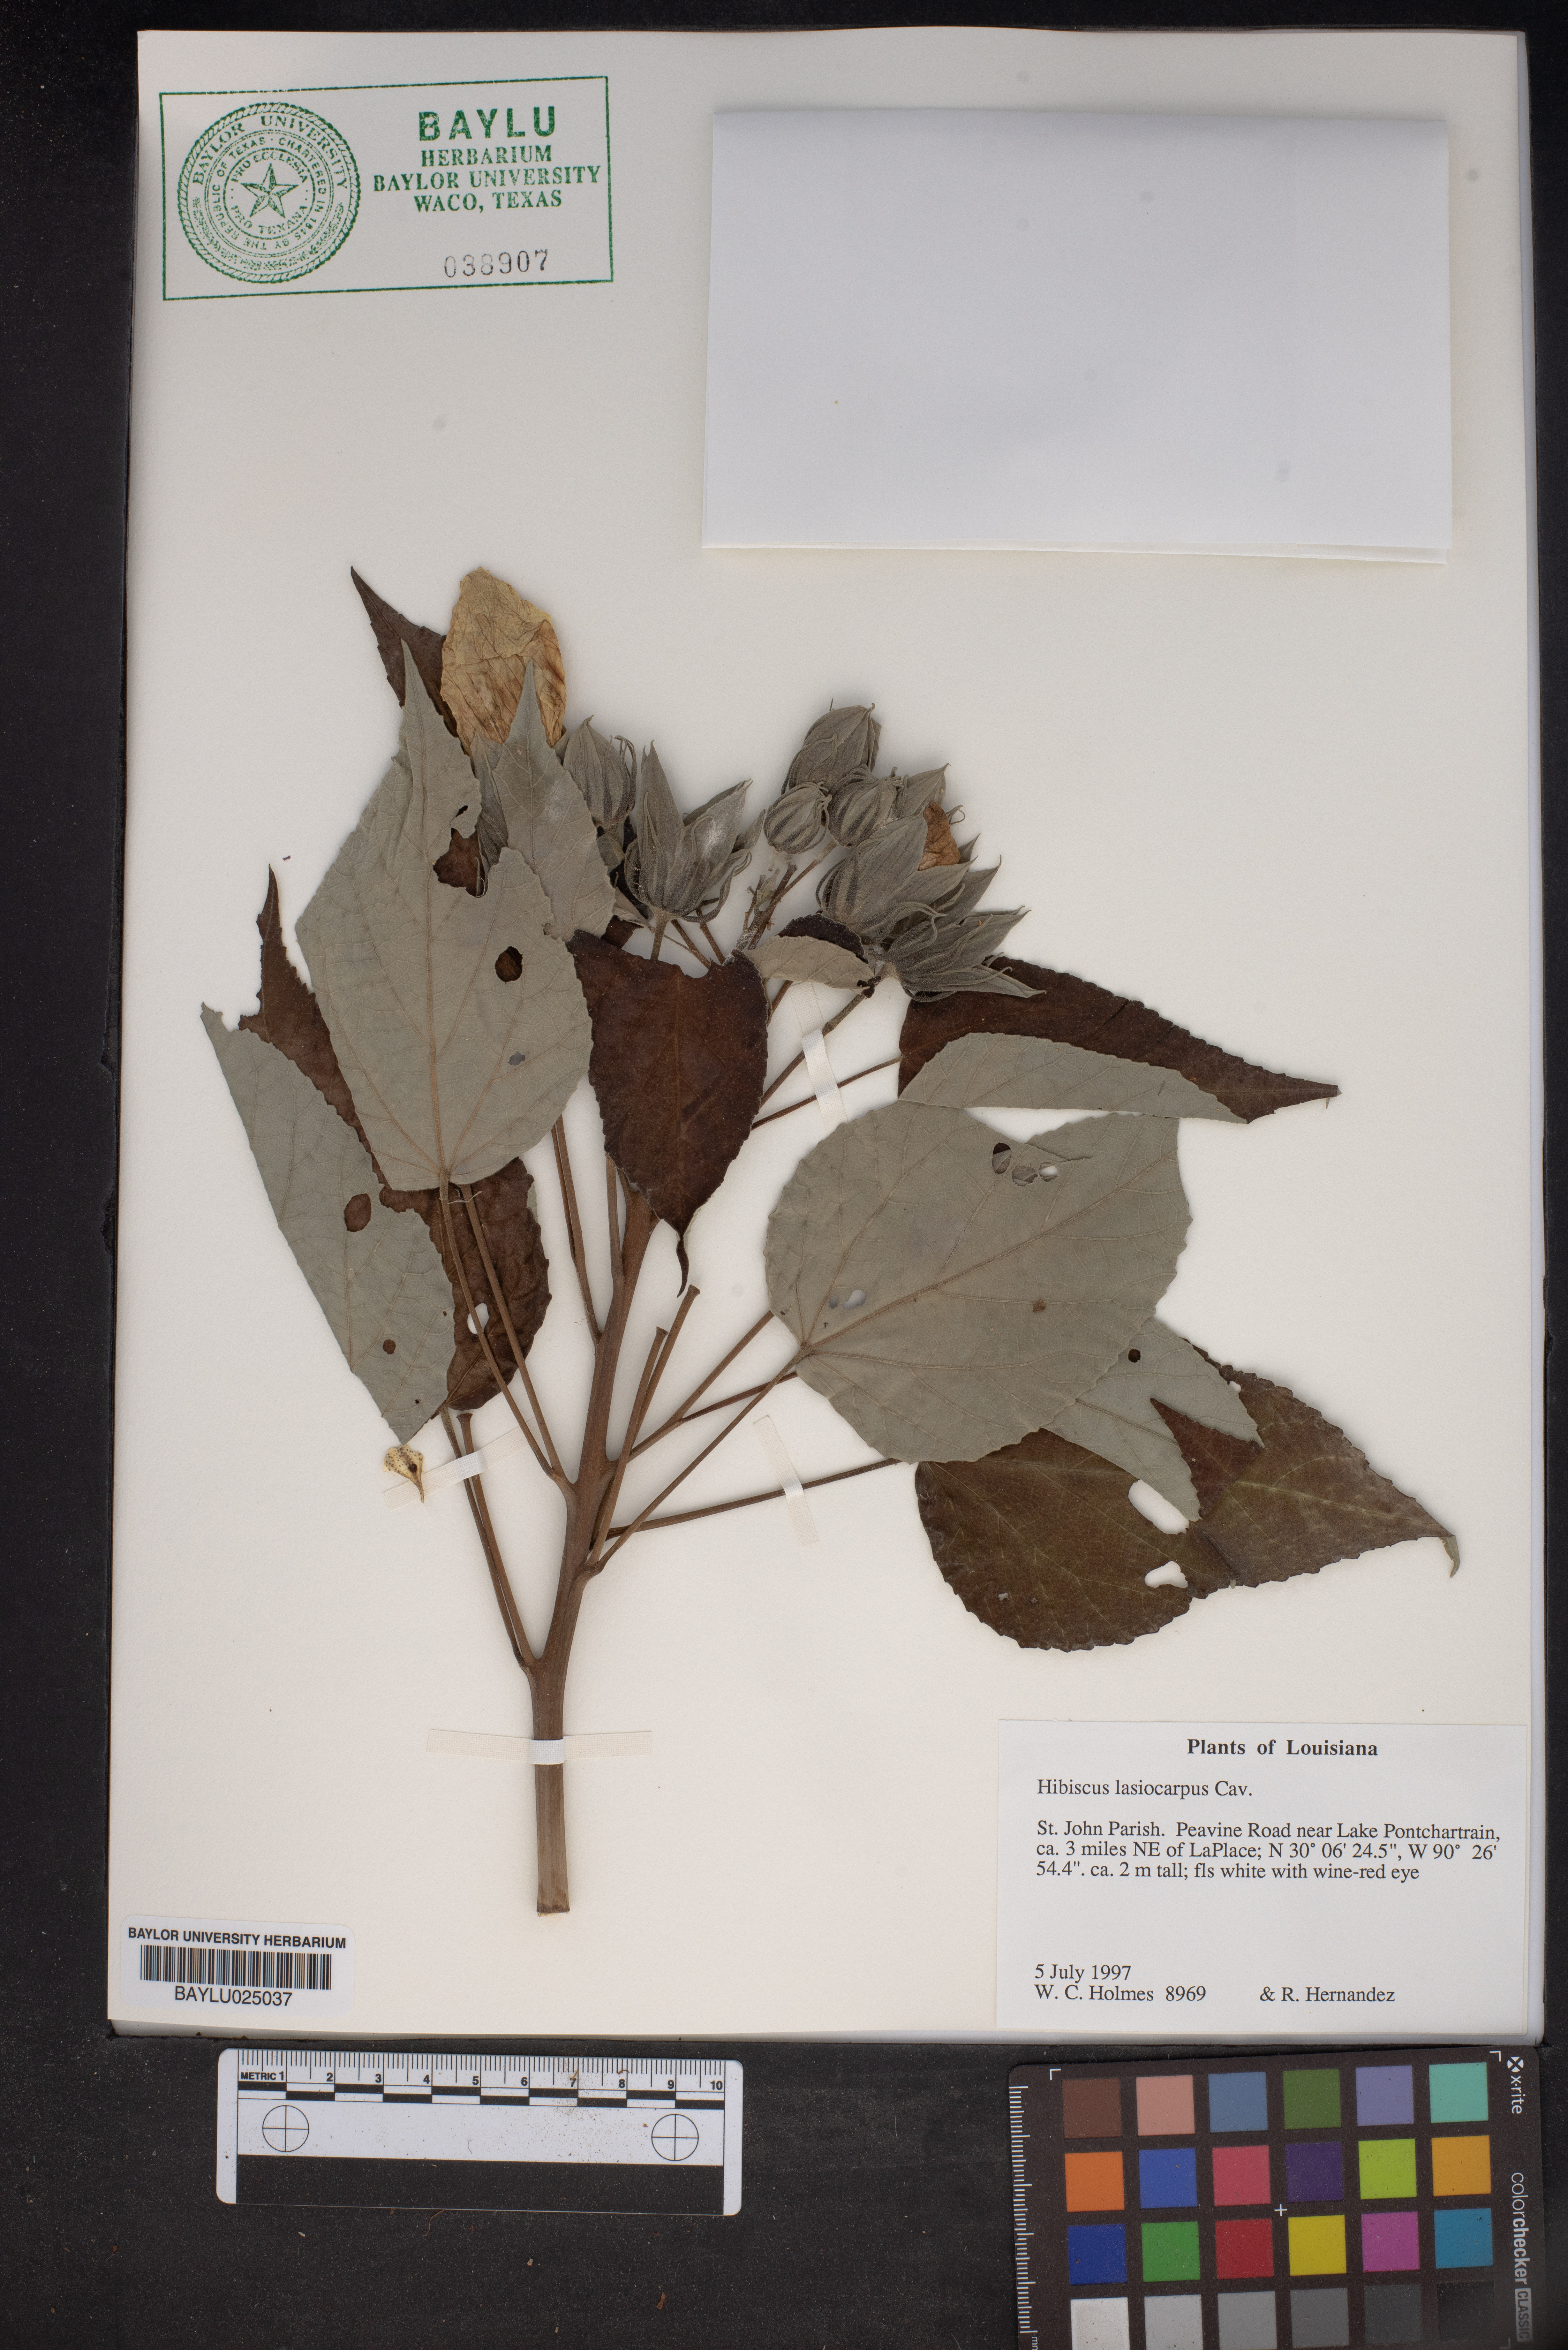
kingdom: Plantae
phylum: Tracheophyta
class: Magnoliopsida
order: Malvales
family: Malvaceae
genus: Hibiscus
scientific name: Hibiscus moscheutos
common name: Common rose-mallow
